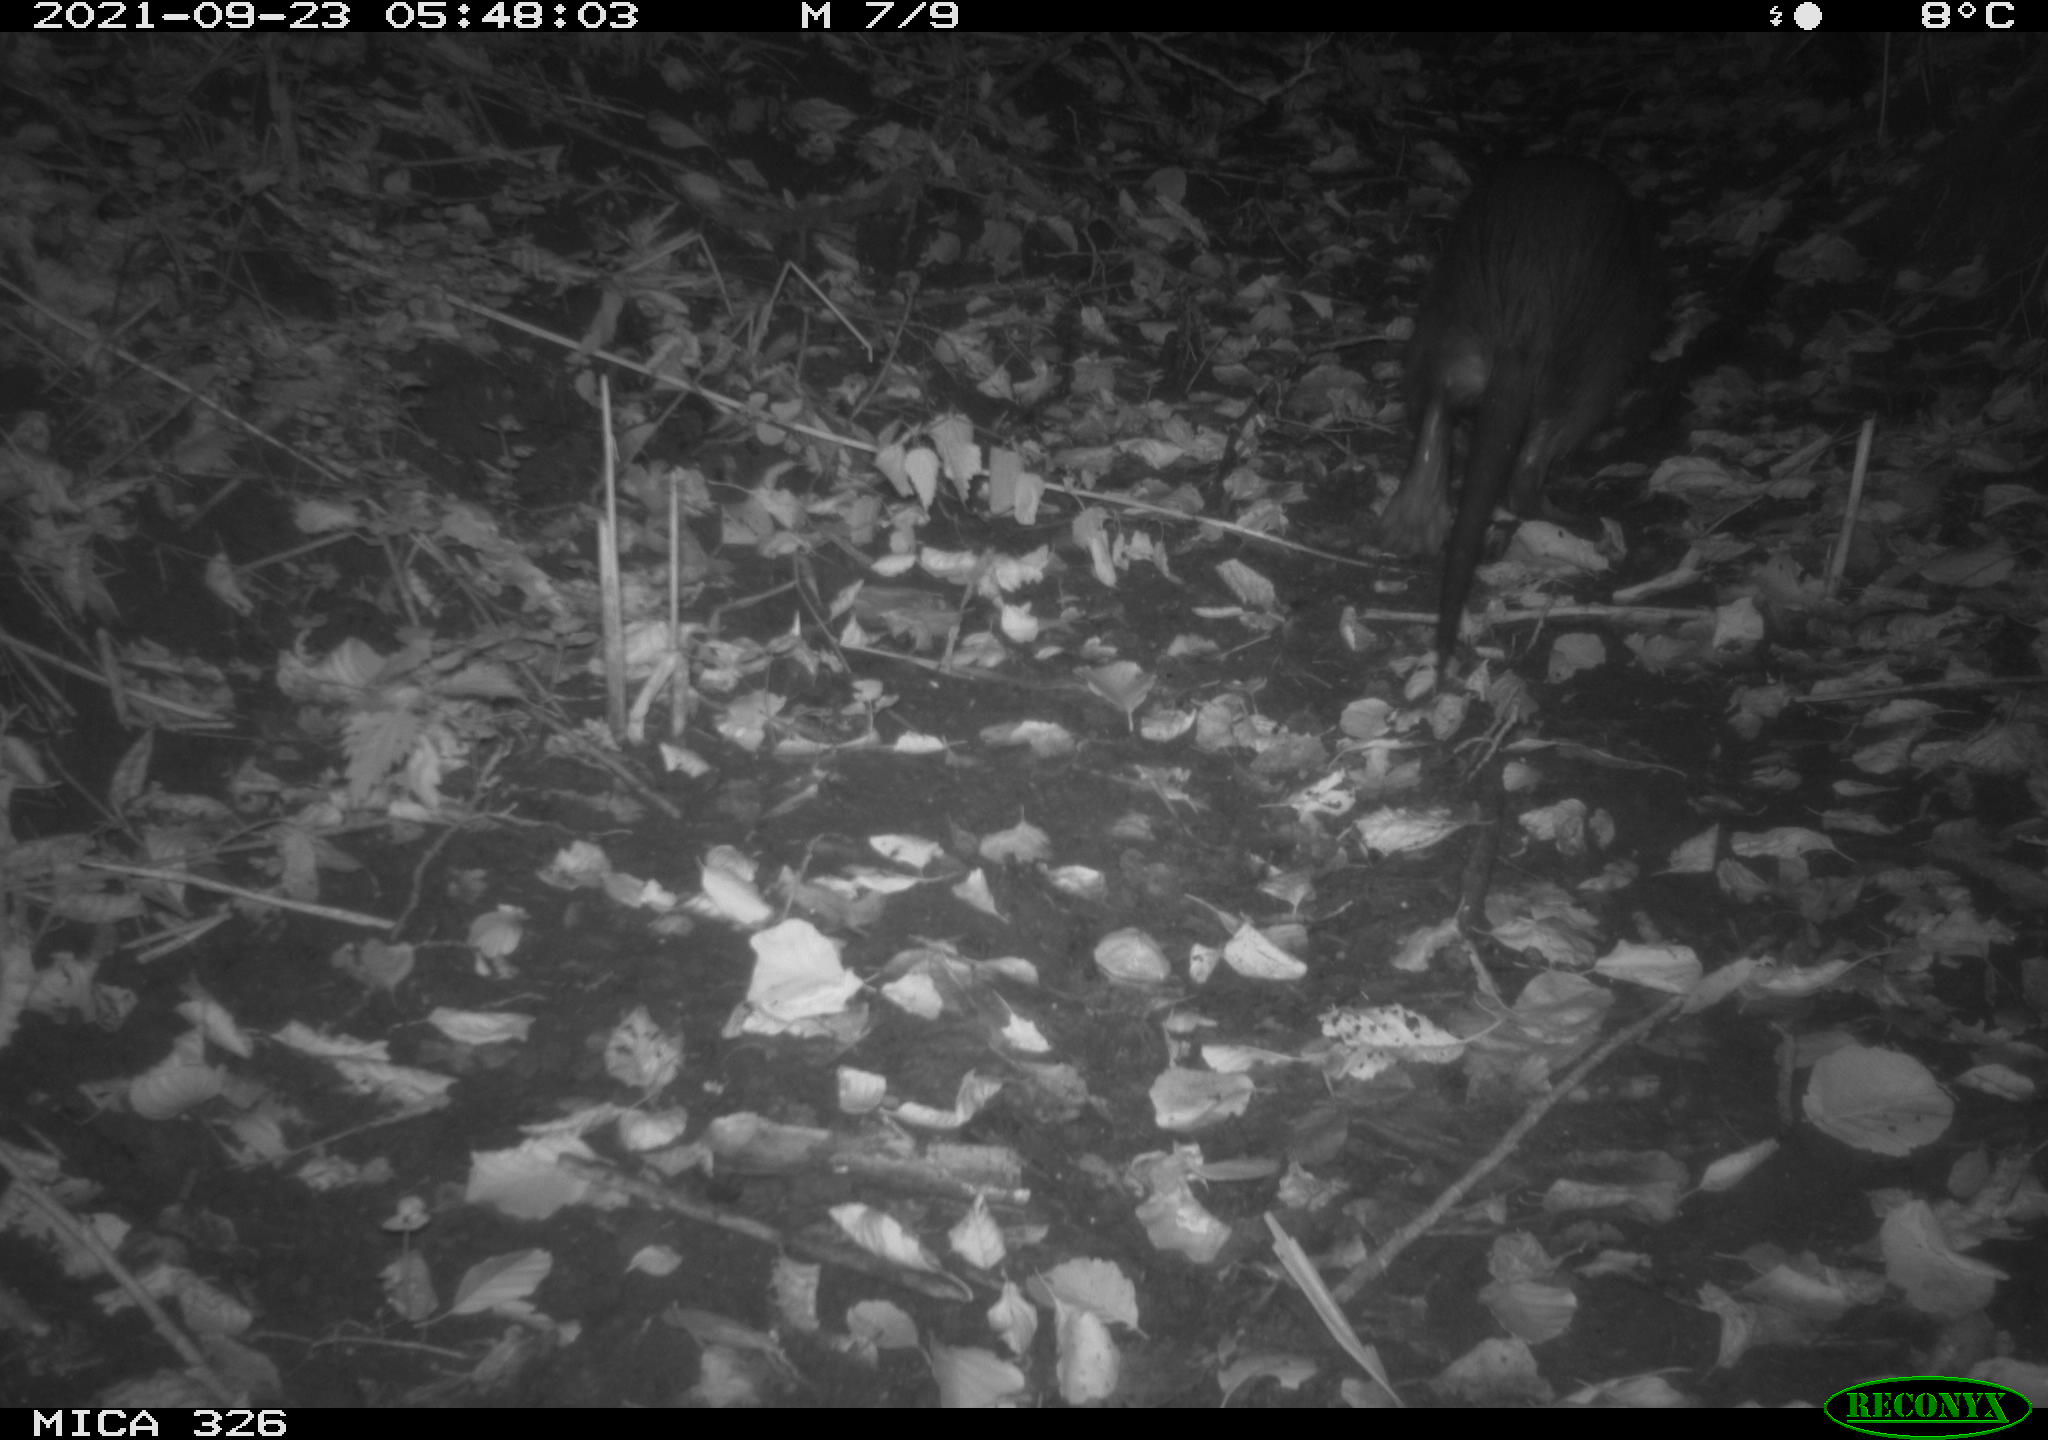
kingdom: Animalia
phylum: Chordata
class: Mammalia
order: Rodentia
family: Myocastoridae
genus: Myocastor
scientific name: Myocastor coypus
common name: Coypu
